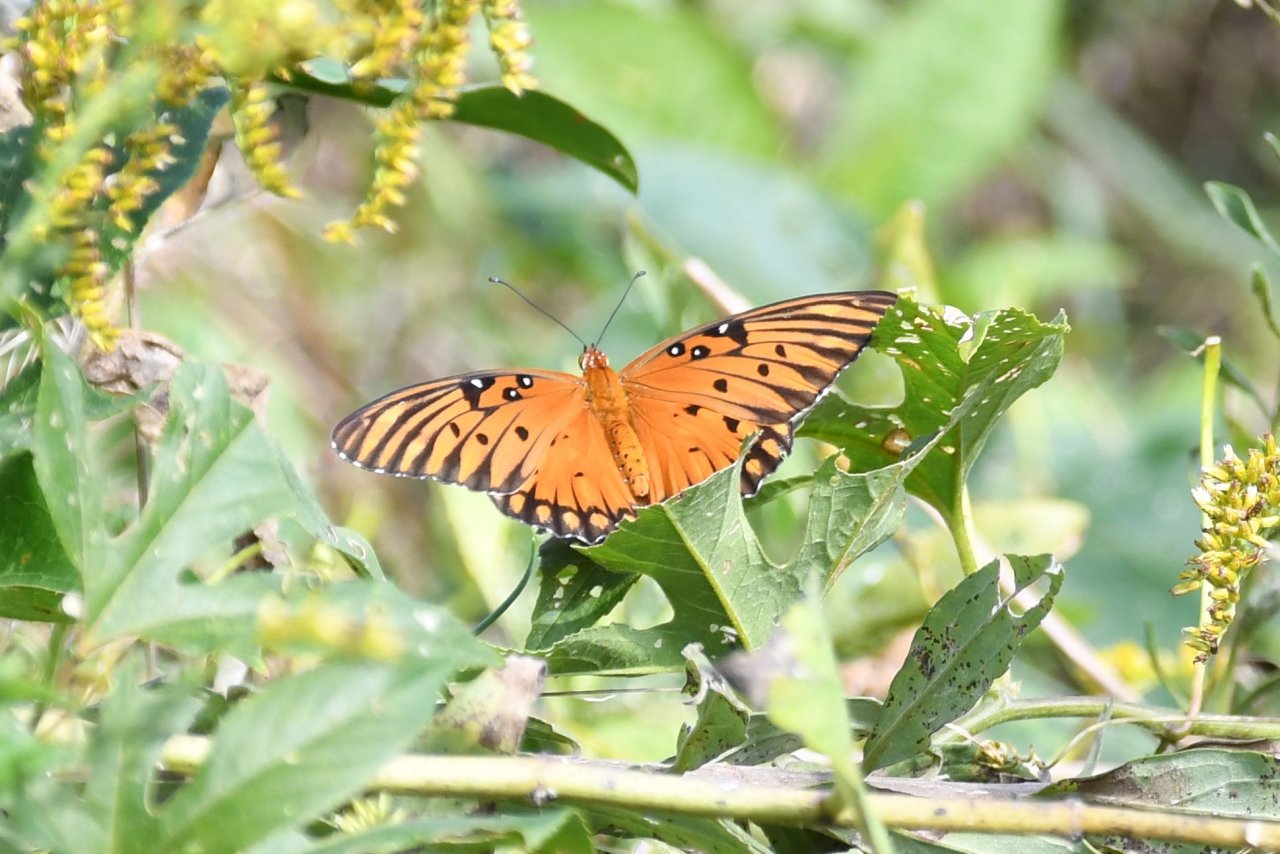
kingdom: Animalia
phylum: Arthropoda
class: Insecta
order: Lepidoptera
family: Nymphalidae
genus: Dione
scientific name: Dione vanillae
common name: Gulf Fritillary
